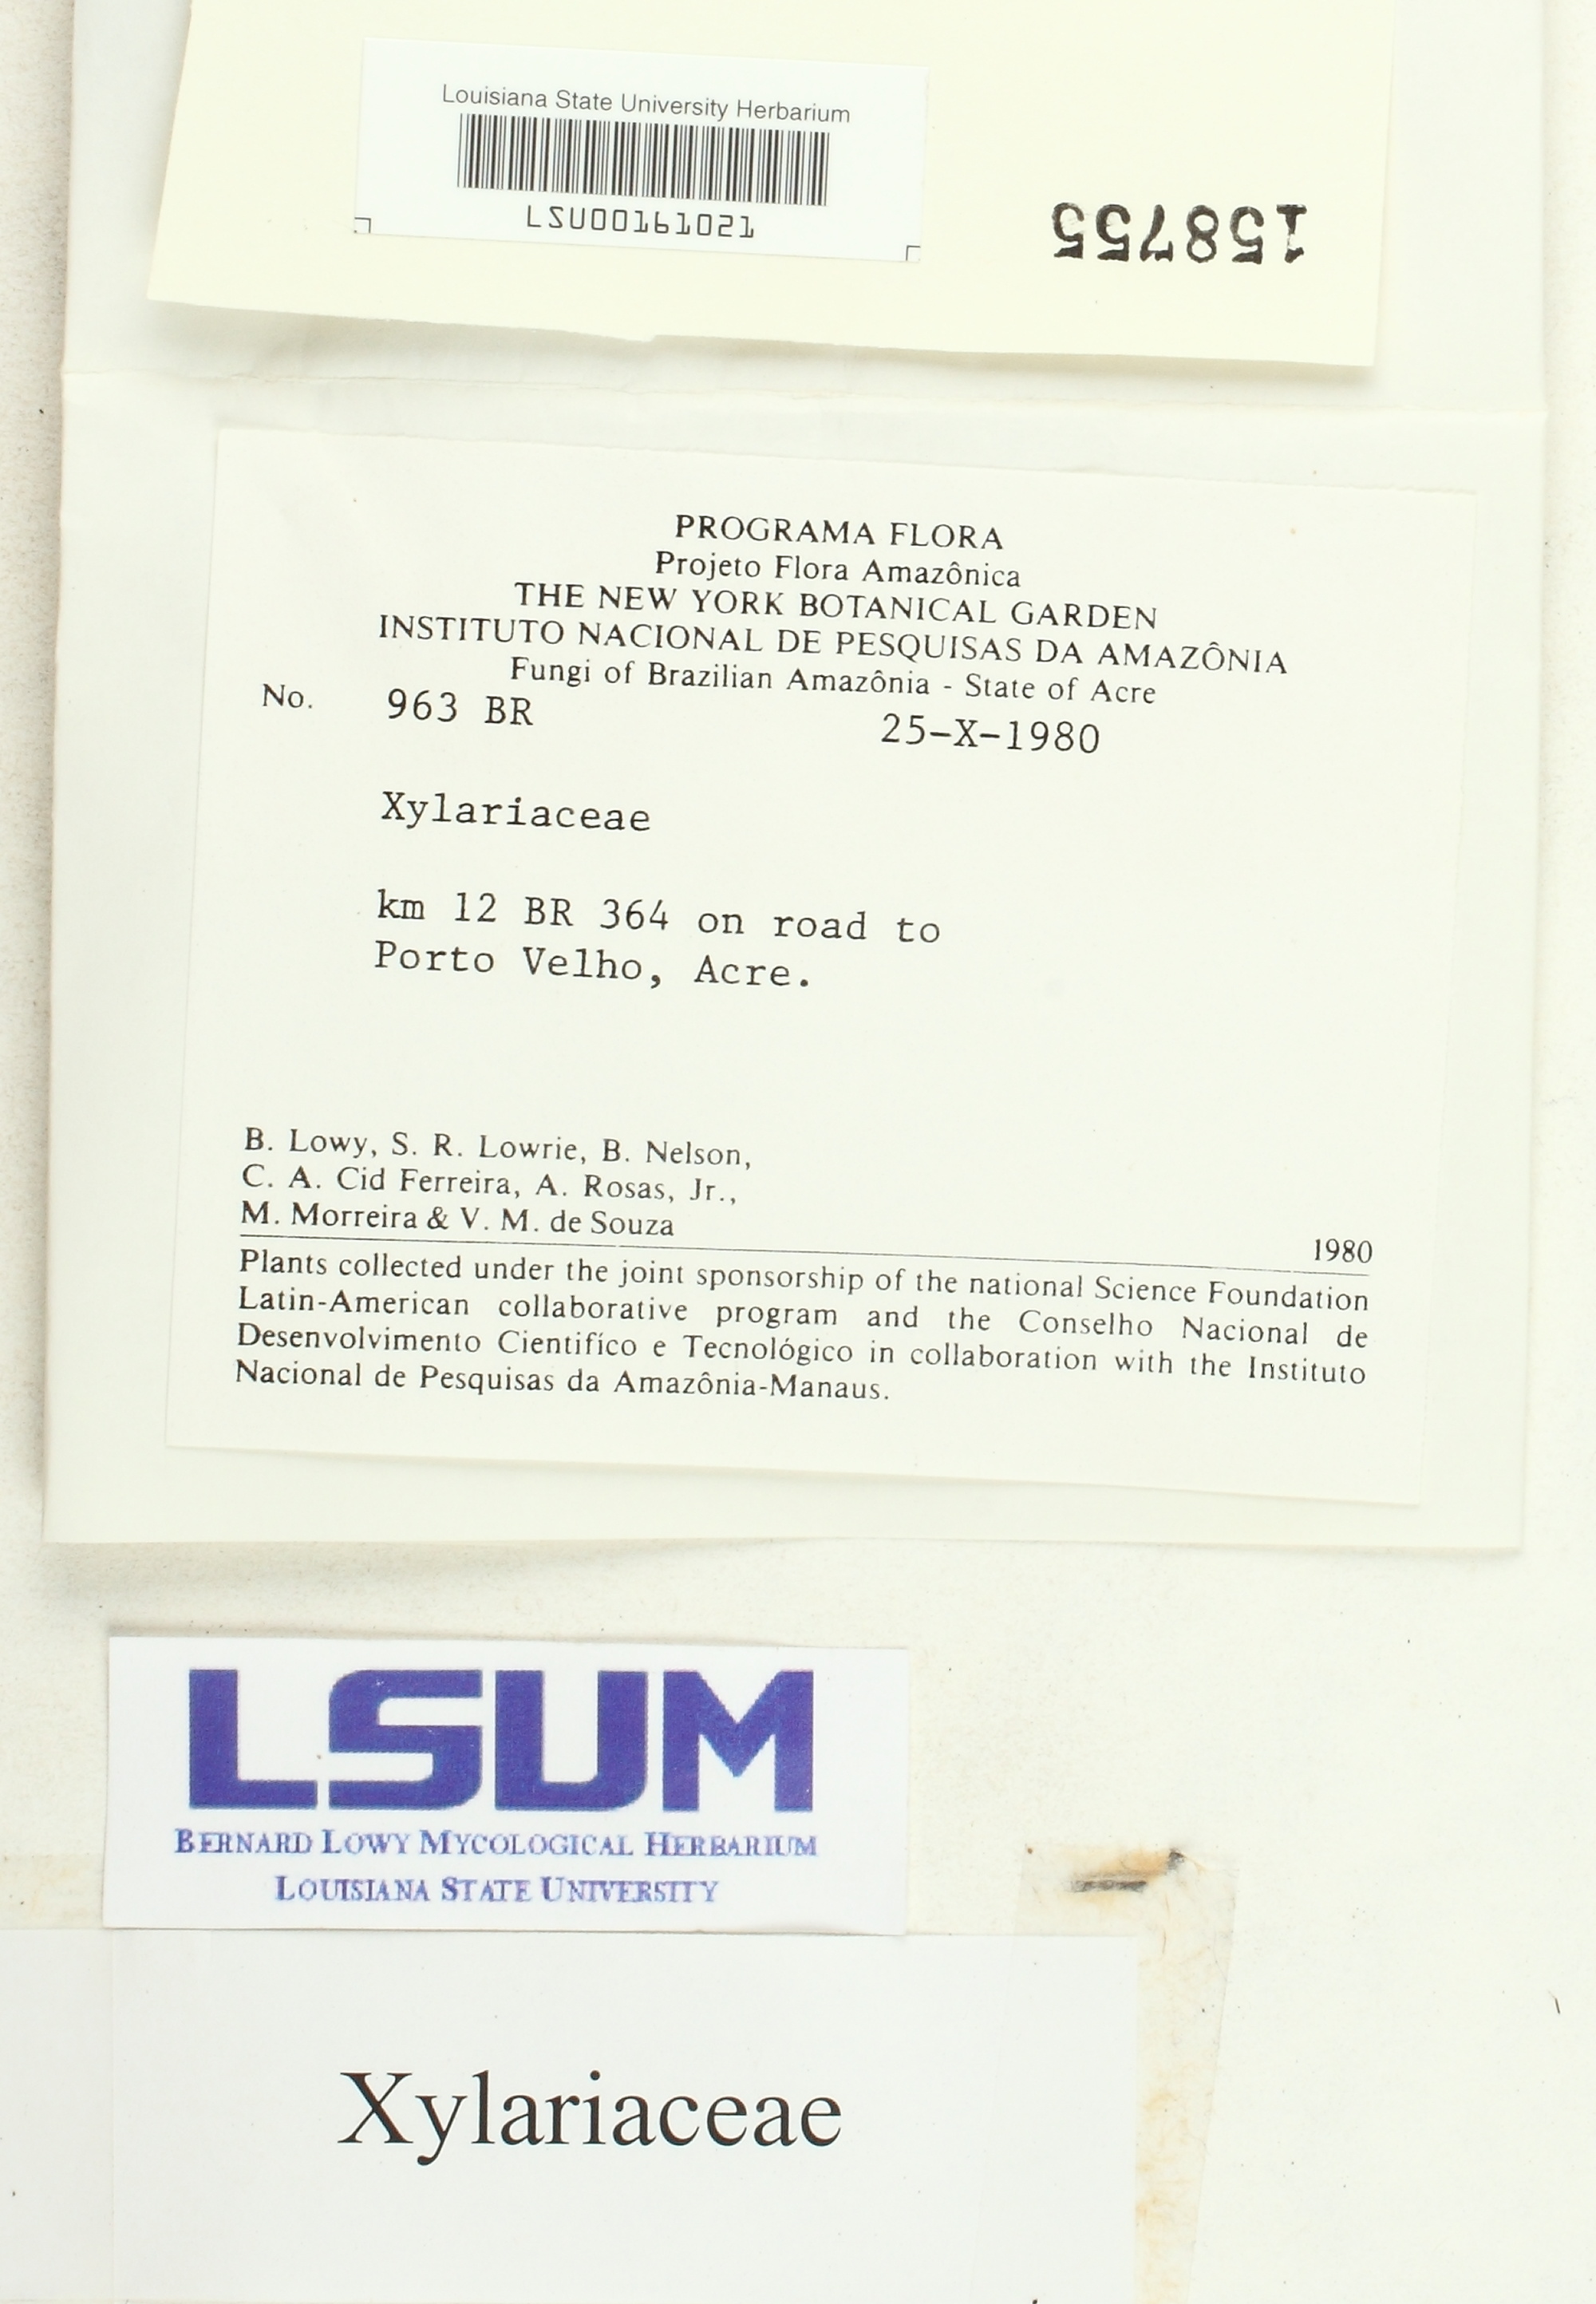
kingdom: Fungi
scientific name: Fungi
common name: Fungi
